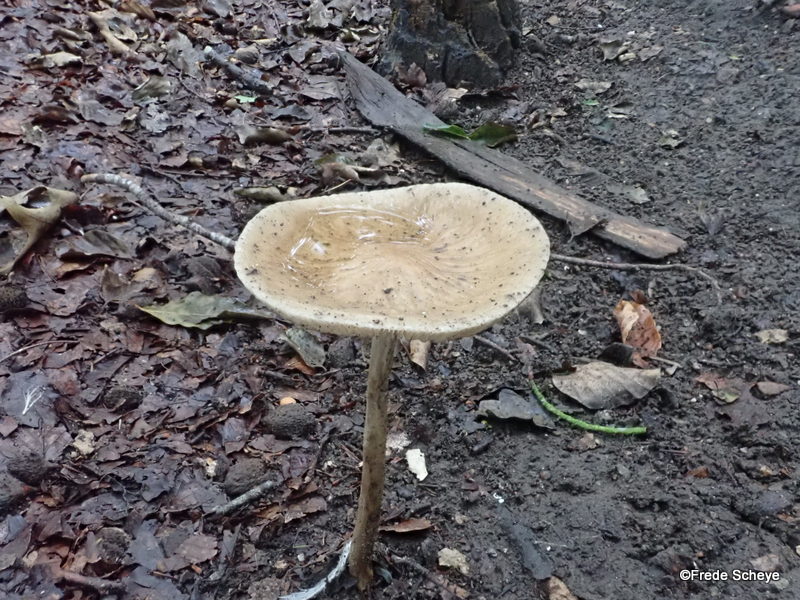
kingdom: Fungi
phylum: Basidiomycota
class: Agaricomycetes
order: Agaricales
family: Physalacriaceae
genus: Hymenopellis
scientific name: Hymenopellis radicata
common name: almindelig pælerodshat
